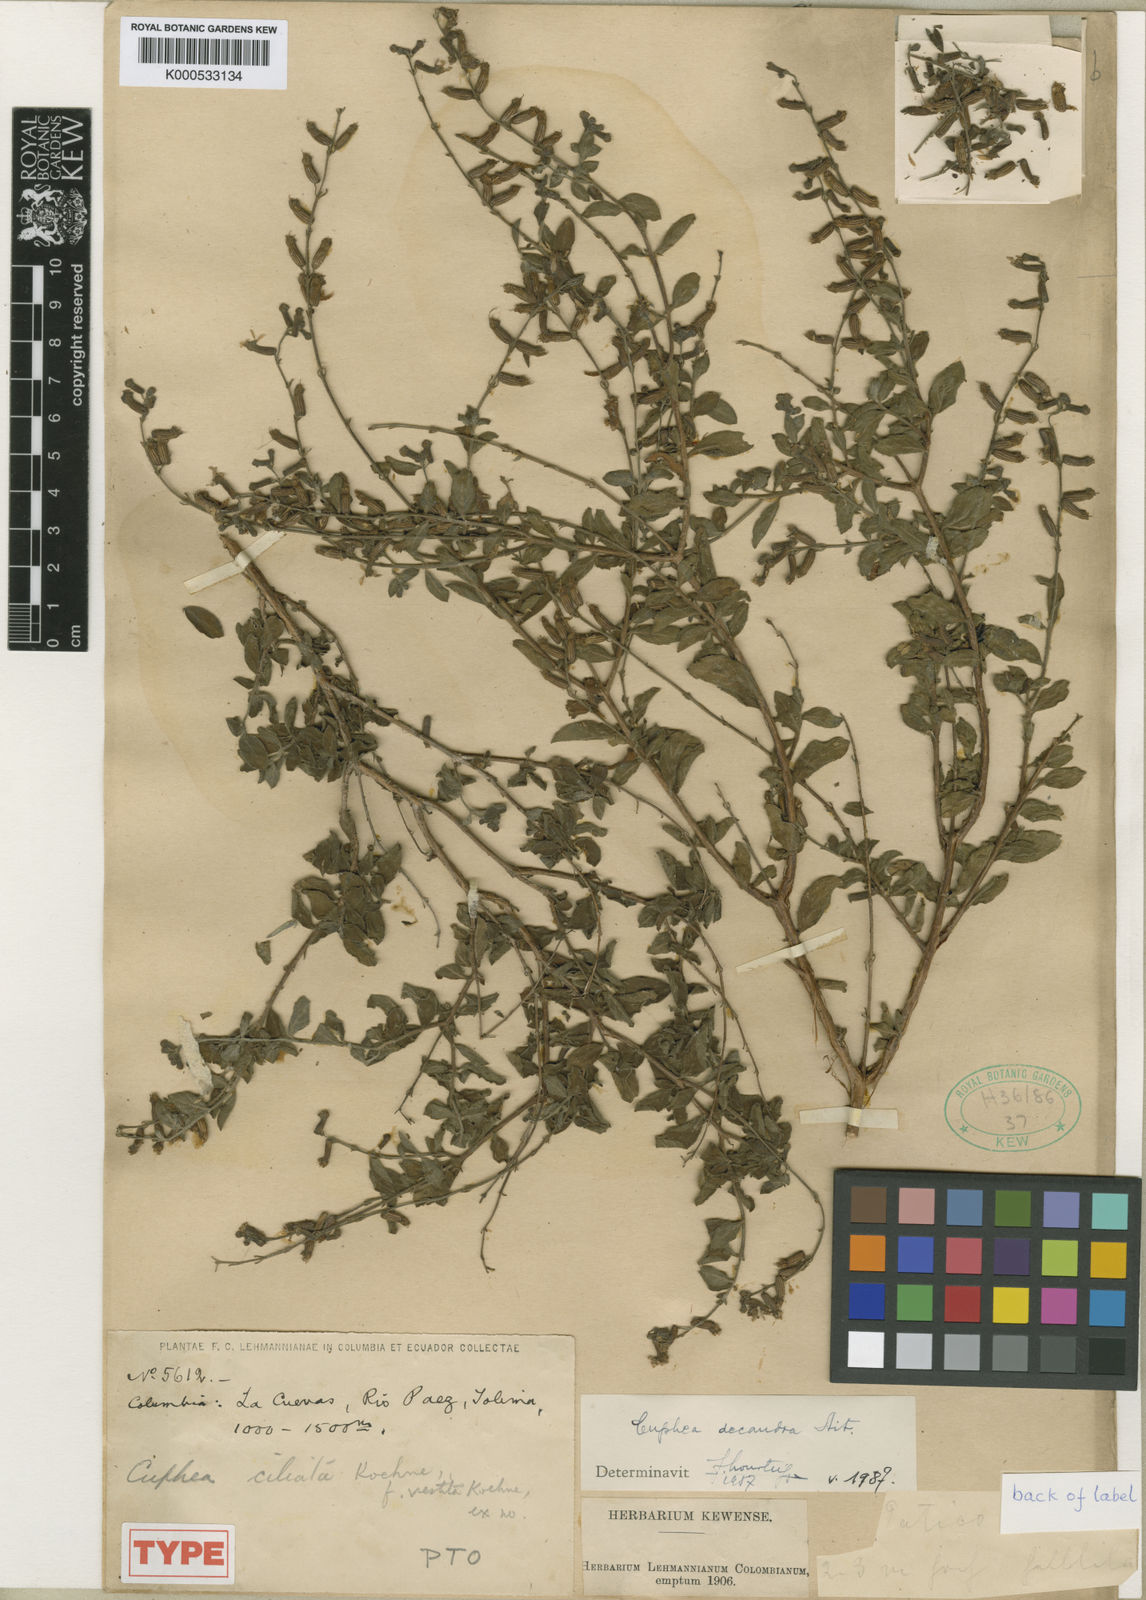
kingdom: Plantae
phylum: Tracheophyta
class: Magnoliopsida
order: Myrtales
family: Lythraceae
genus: Cuphea
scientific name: Cuphea decandra
